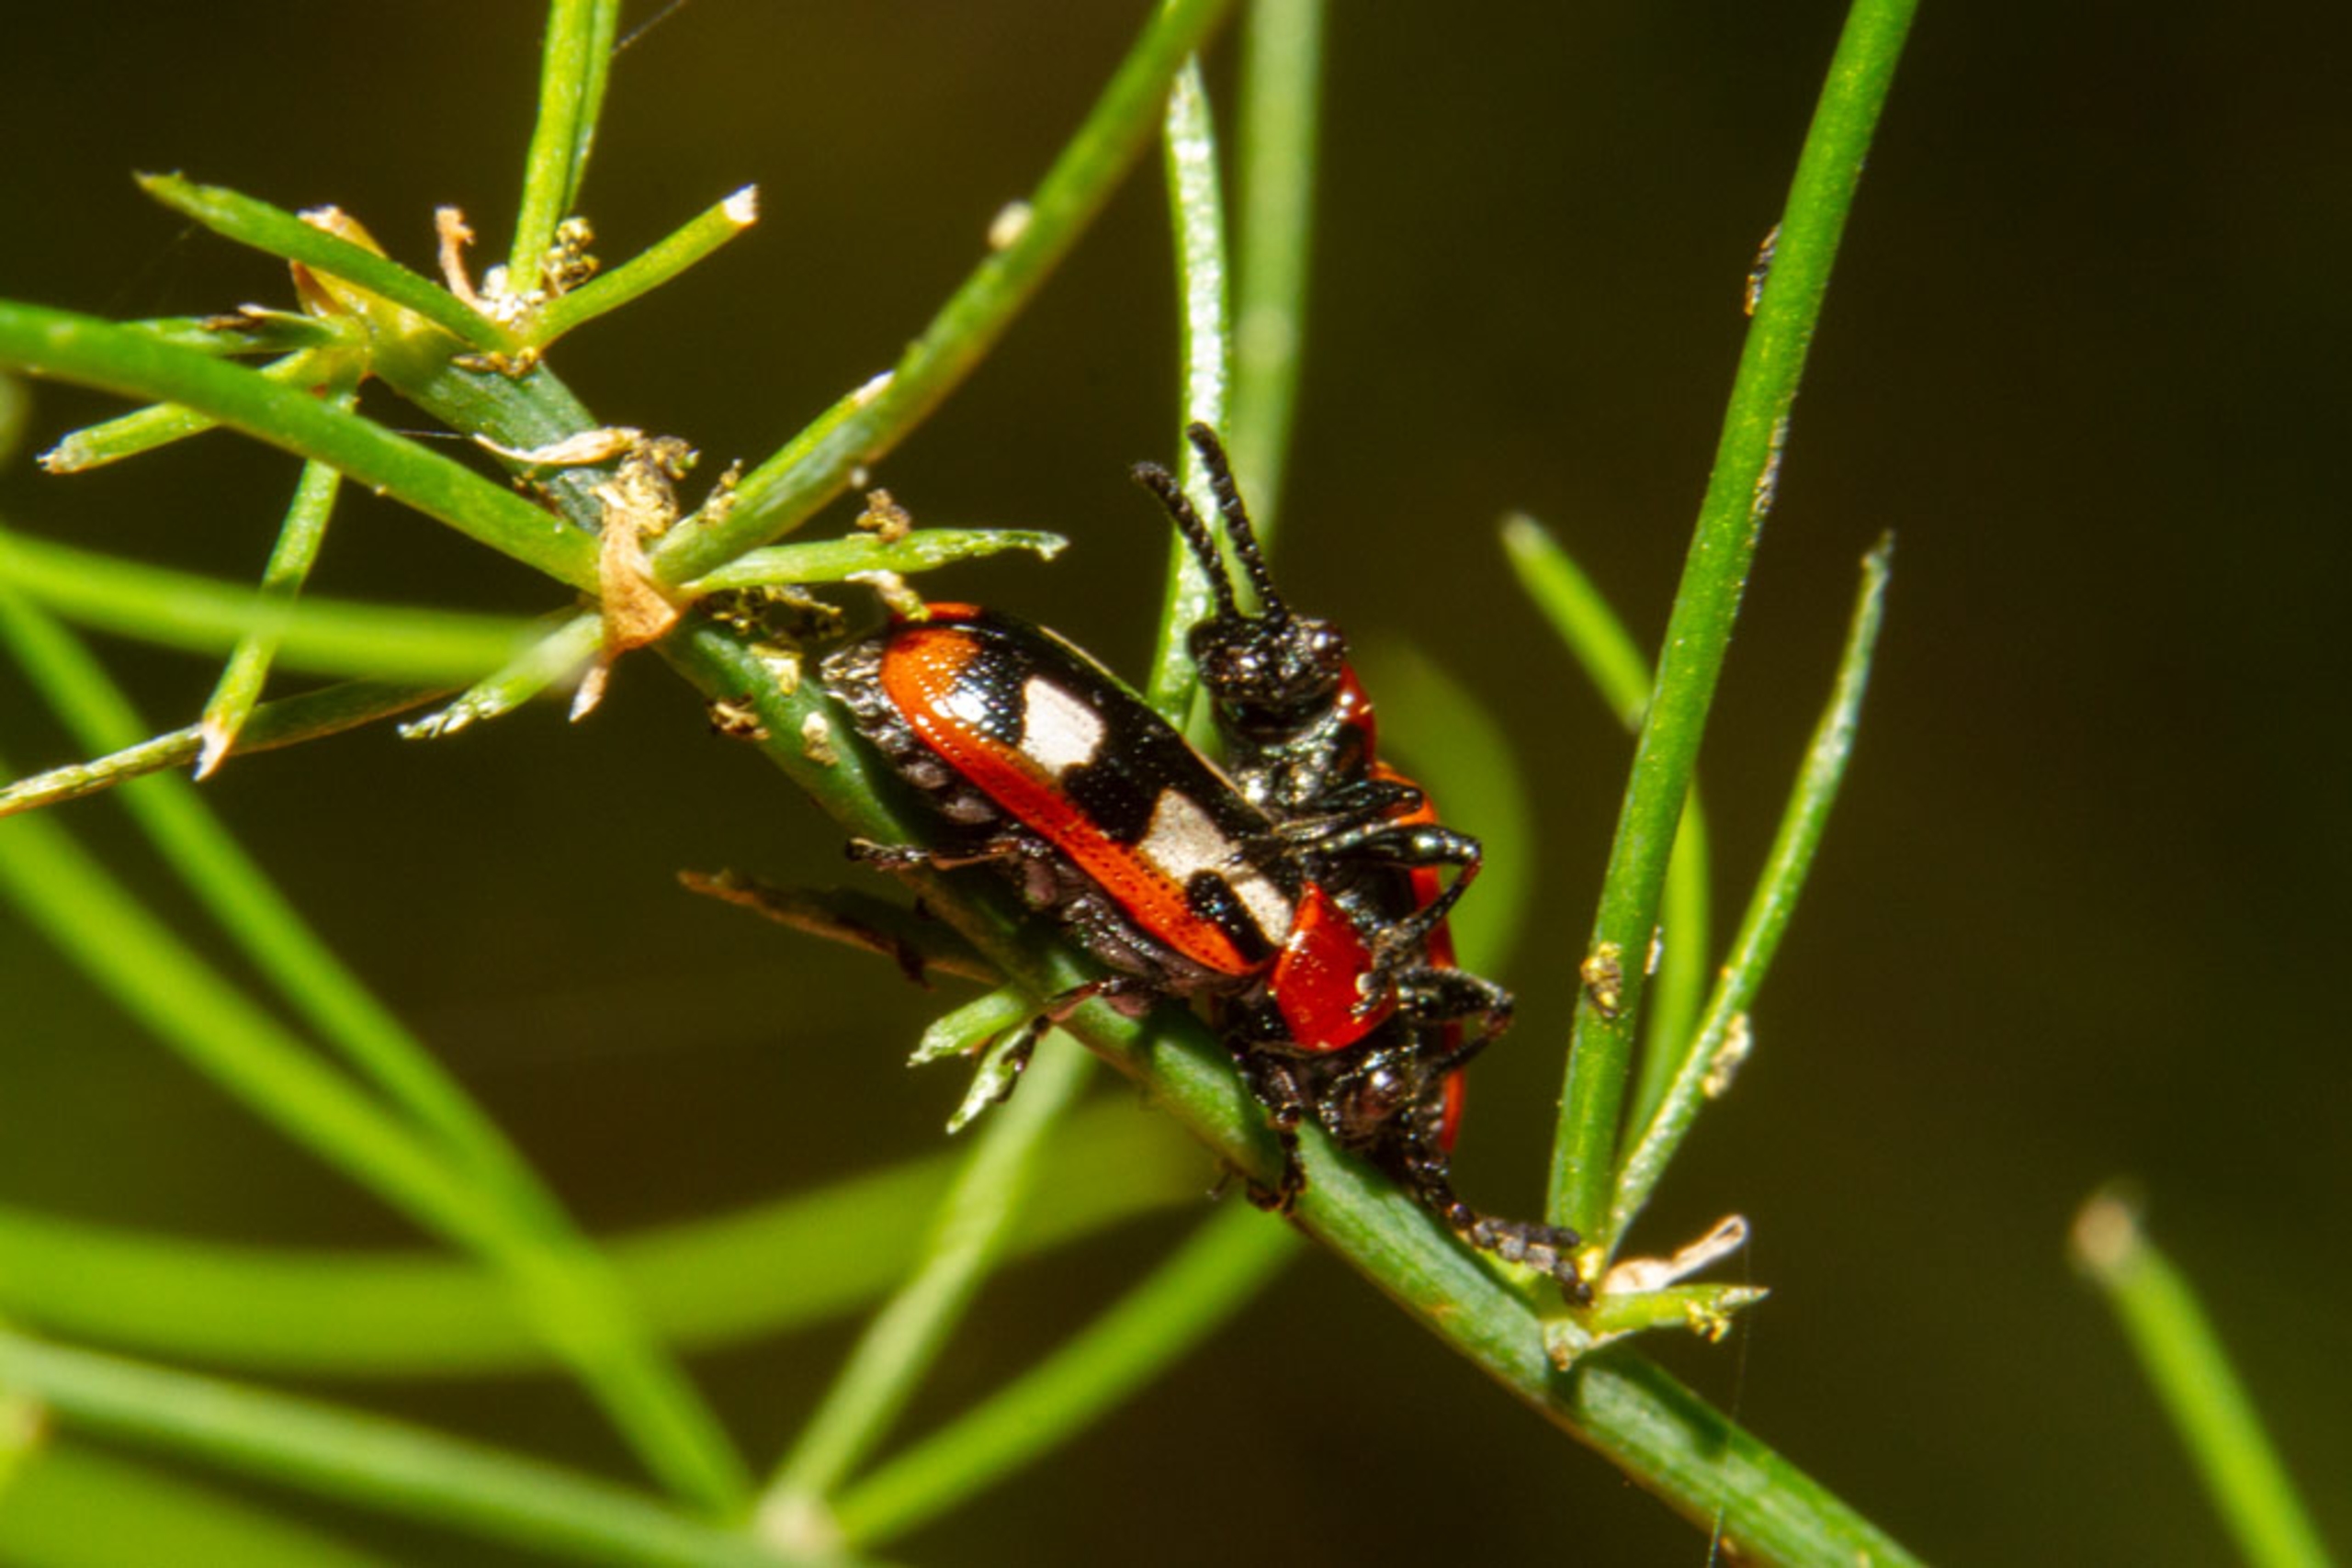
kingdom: Animalia
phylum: Arthropoda
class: Insecta
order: Coleoptera
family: Chrysomelidae
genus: Crioceris
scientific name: Crioceris asparagi
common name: Gulplettet aspargesbille
